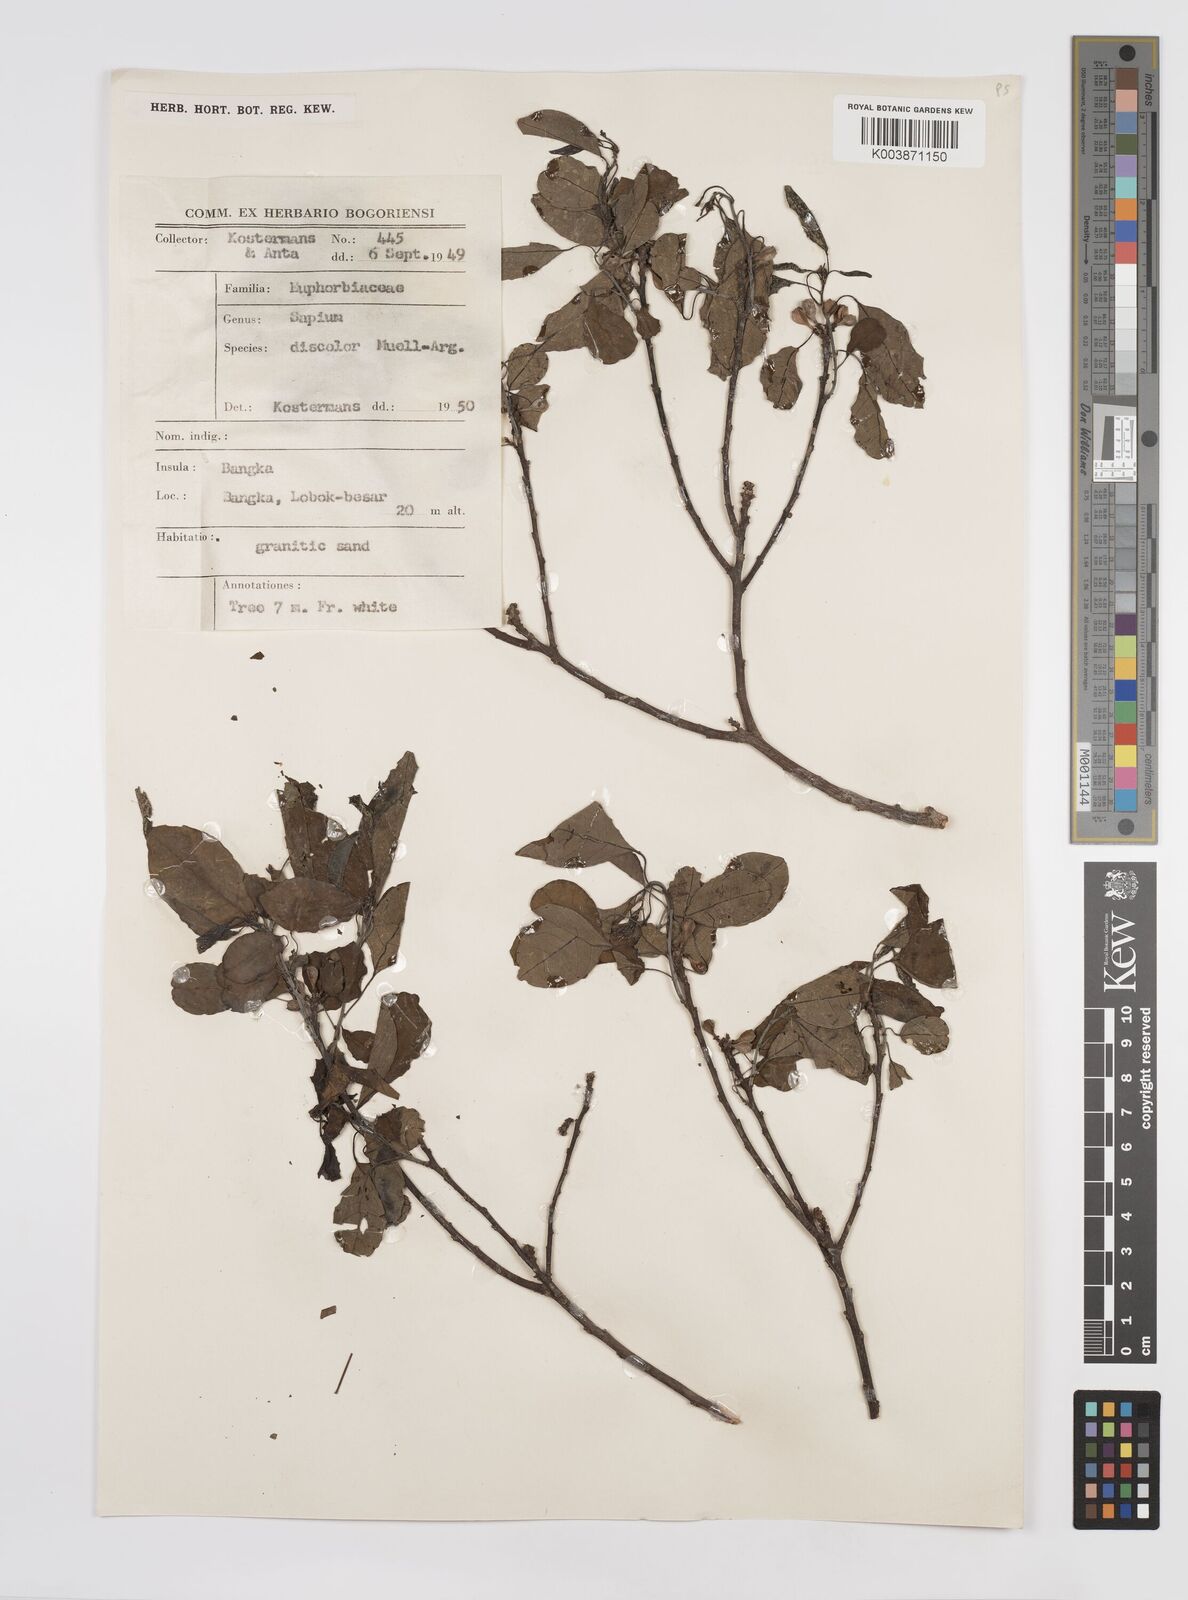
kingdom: Plantae
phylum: Tracheophyta
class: Magnoliopsida
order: Malpighiales
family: Euphorbiaceae
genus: Triadica
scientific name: Triadica cochinchinensis
